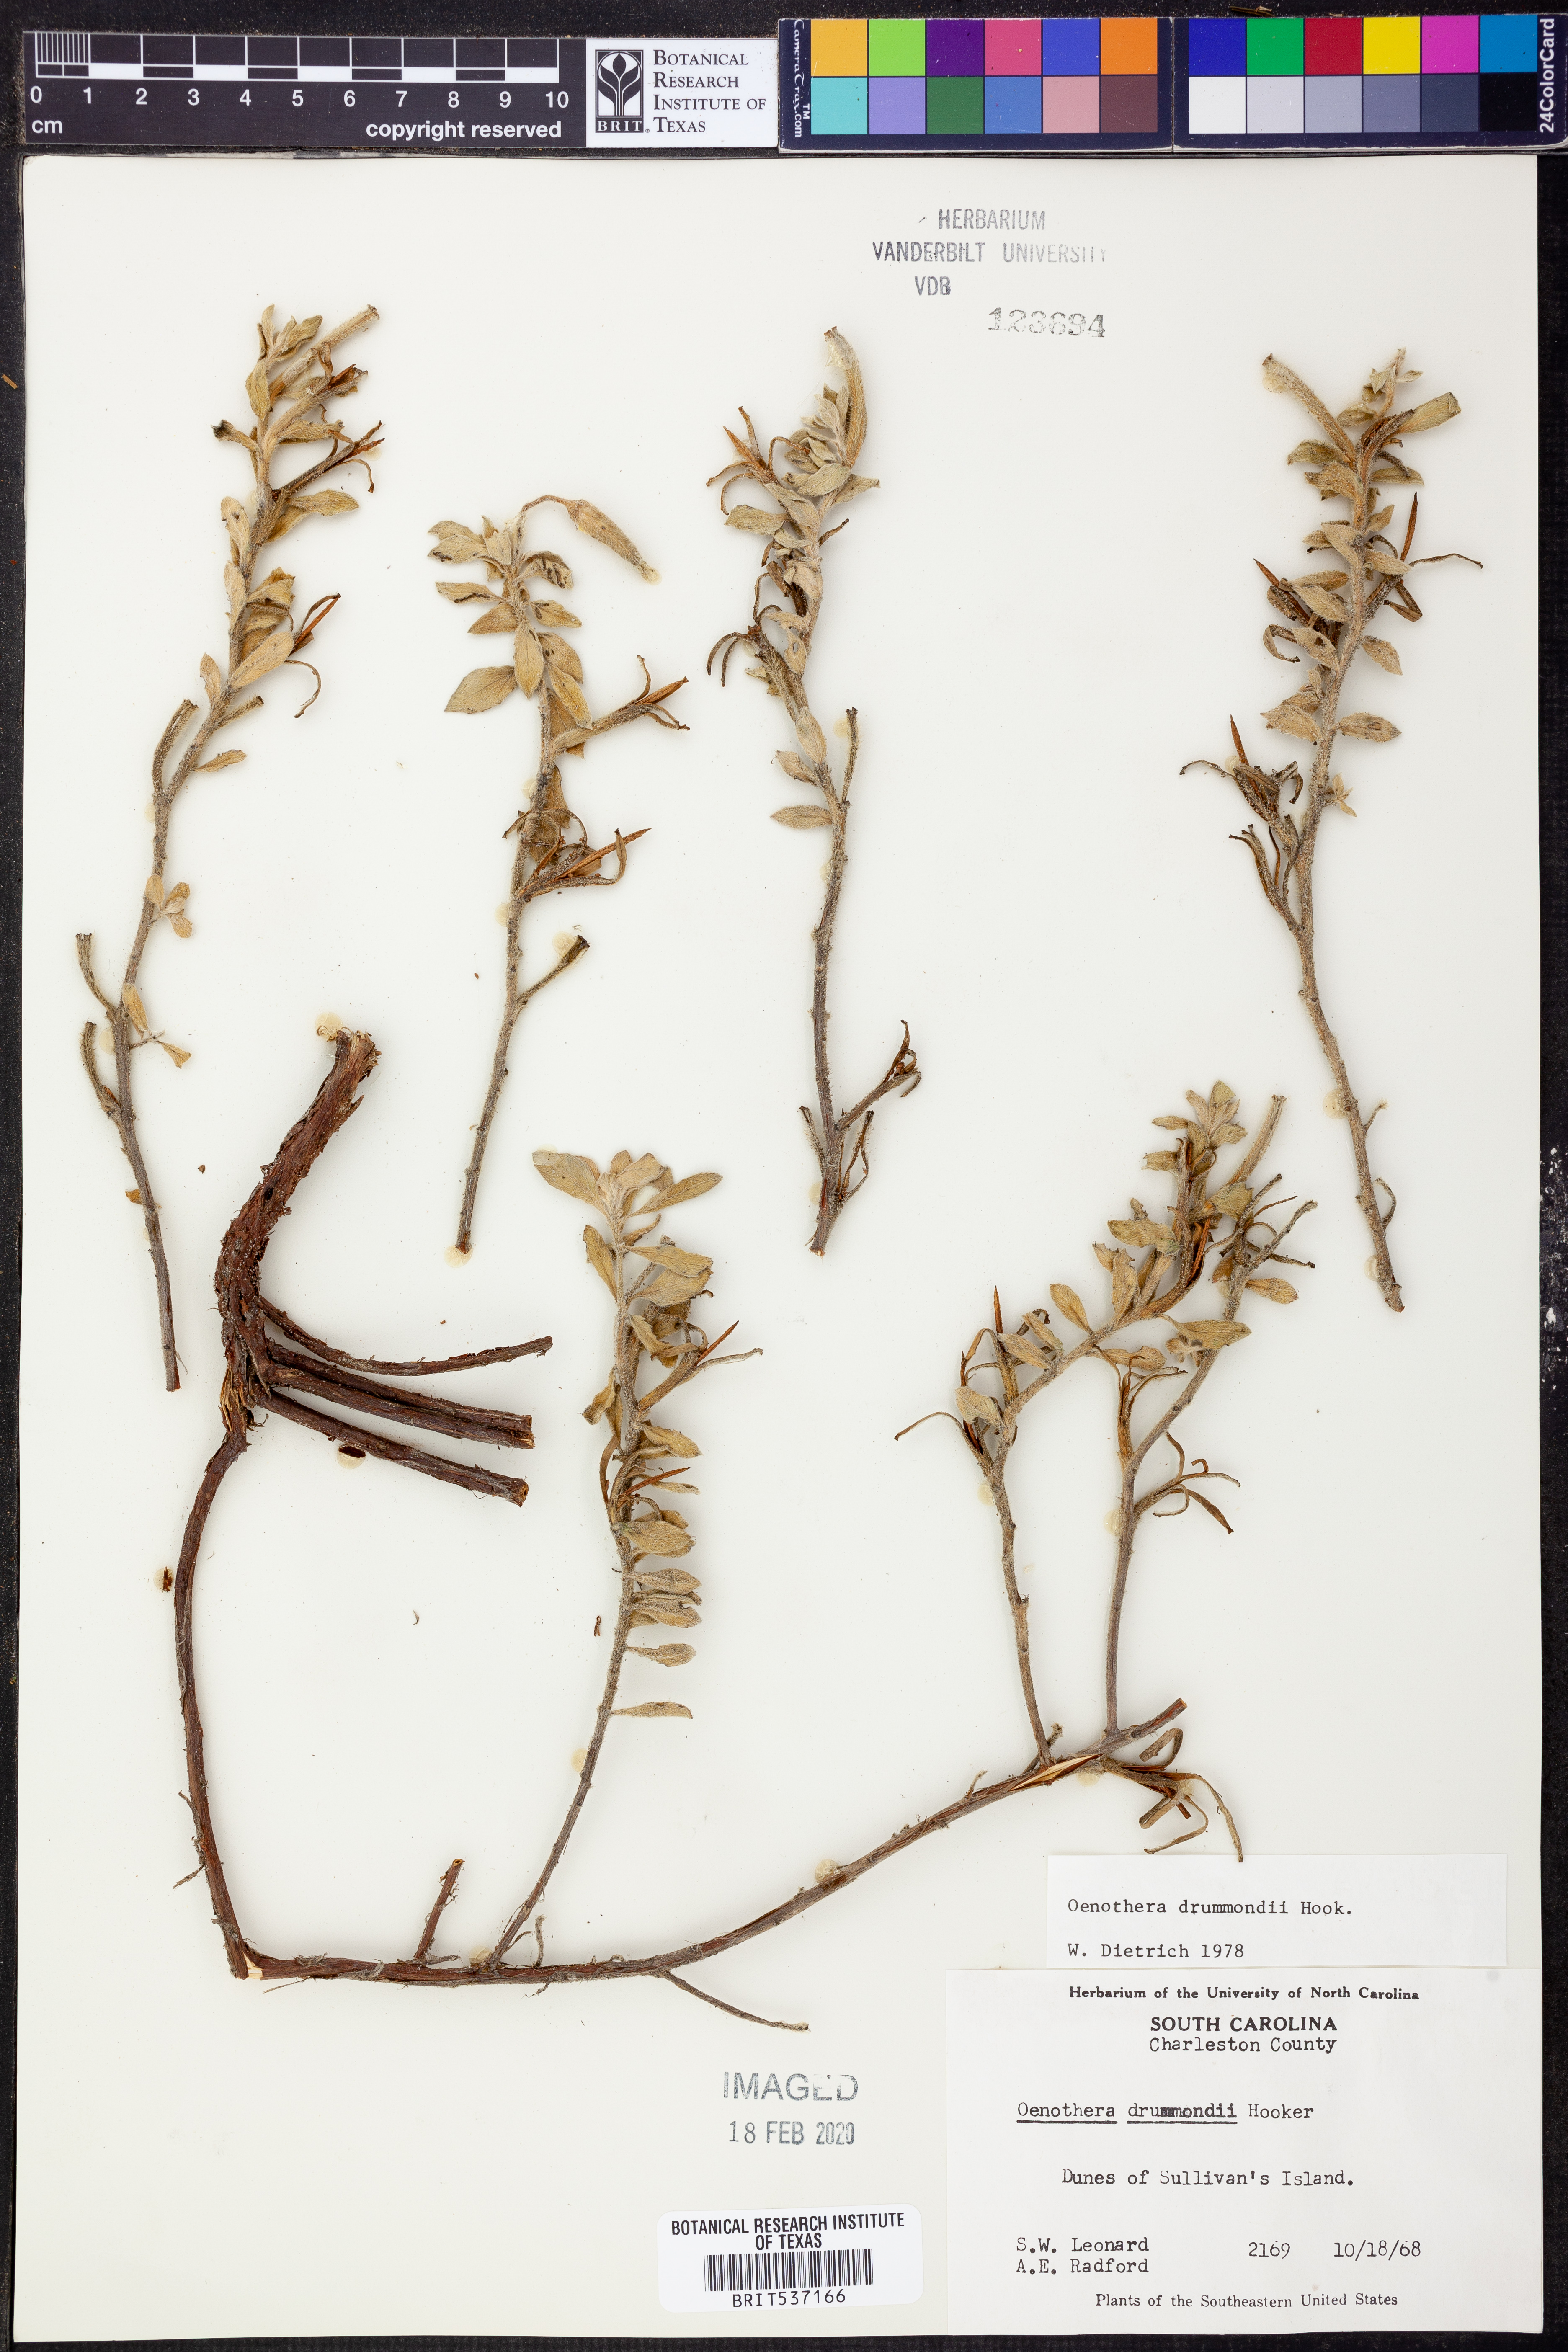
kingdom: Plantae
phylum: Tracheophyta
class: Magnoliopsida
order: Myrtales
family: Onagraceae
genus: Oenothera
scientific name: Oenothera drummondii
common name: Beach evening-primrose
